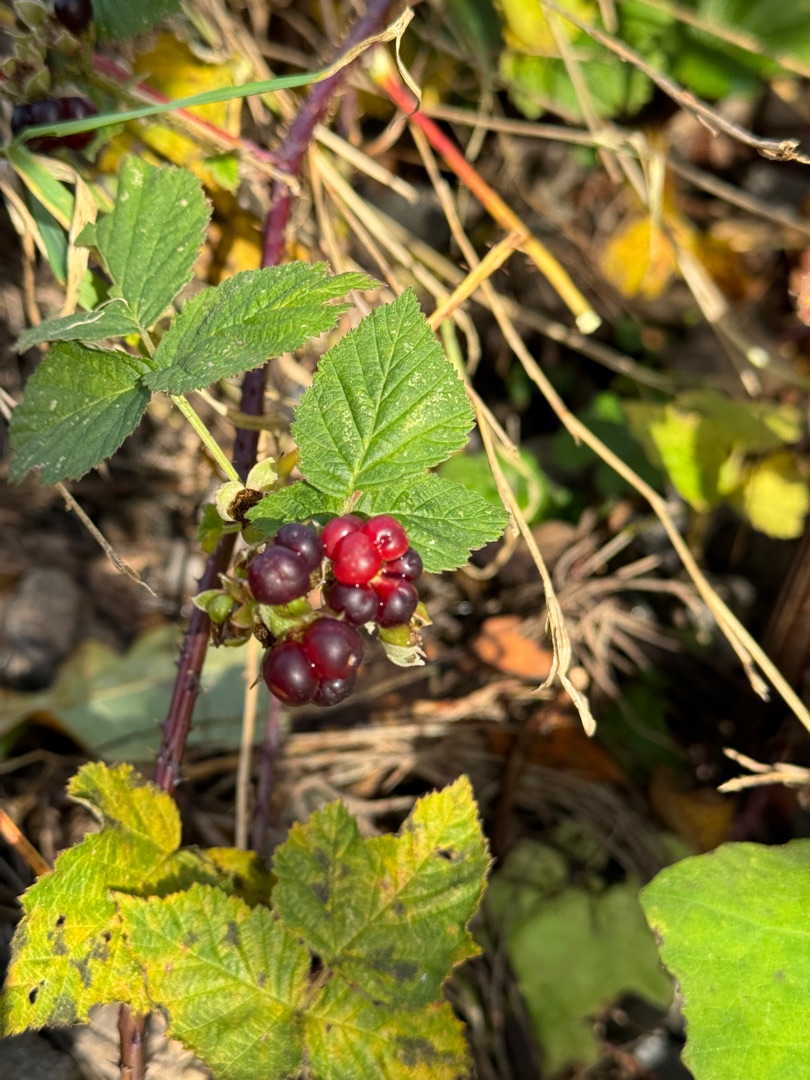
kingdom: Plantae
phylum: Tracheophyta
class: Magnoliopsida
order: Rosales
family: Rosaceae
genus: Rubus
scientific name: Rubus
